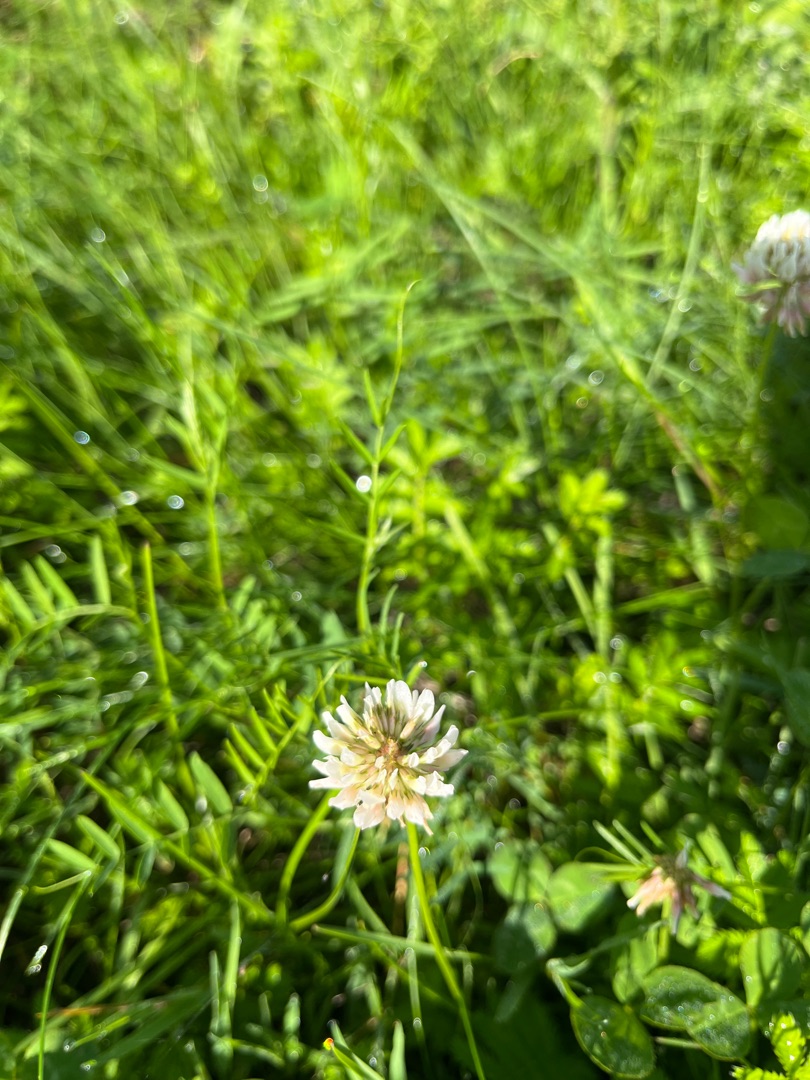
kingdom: Plantae
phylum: Tracheophyta
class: Magnoliopsida
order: Fabales
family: Fabaceae
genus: Trifolium
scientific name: Trifolium repens
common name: Hvid-kløver
